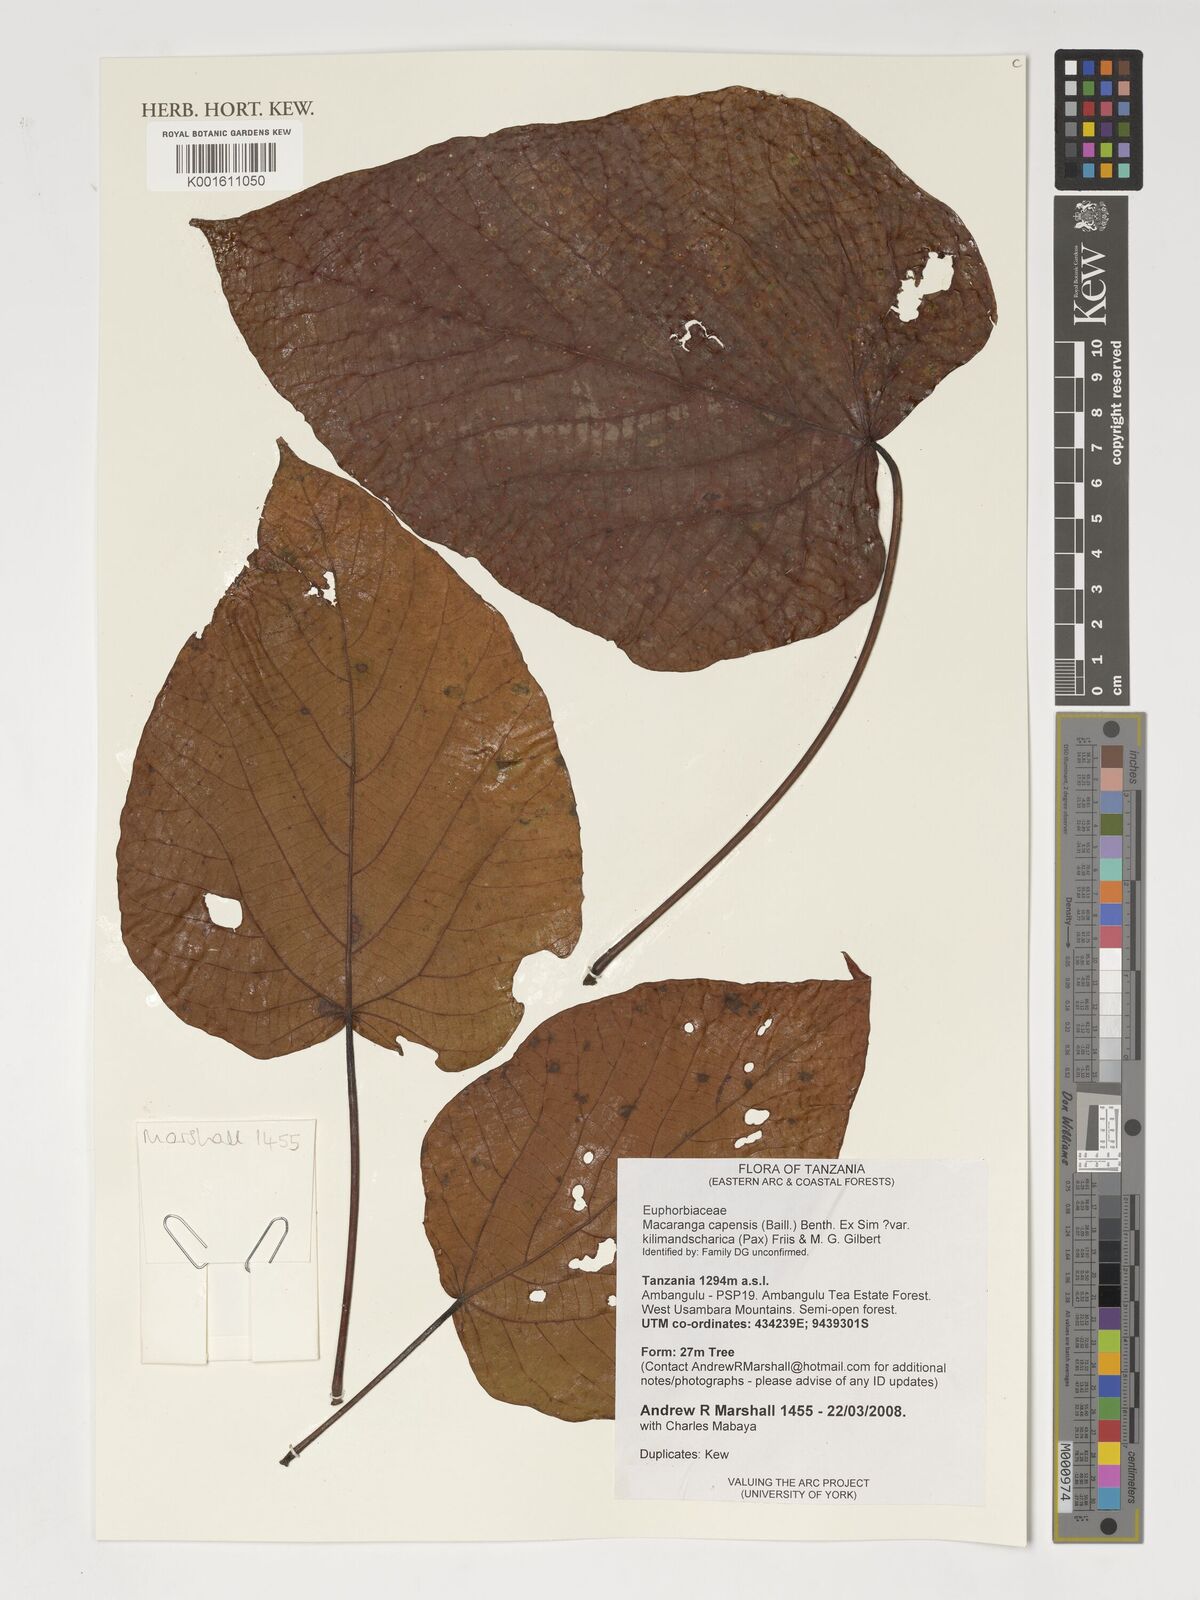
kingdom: Plantae
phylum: Tracheophyta
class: Magnoliopsida
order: Malpighiales
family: Euphorbiaceae
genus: Macaranga
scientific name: Macaranga kilimandscharica
